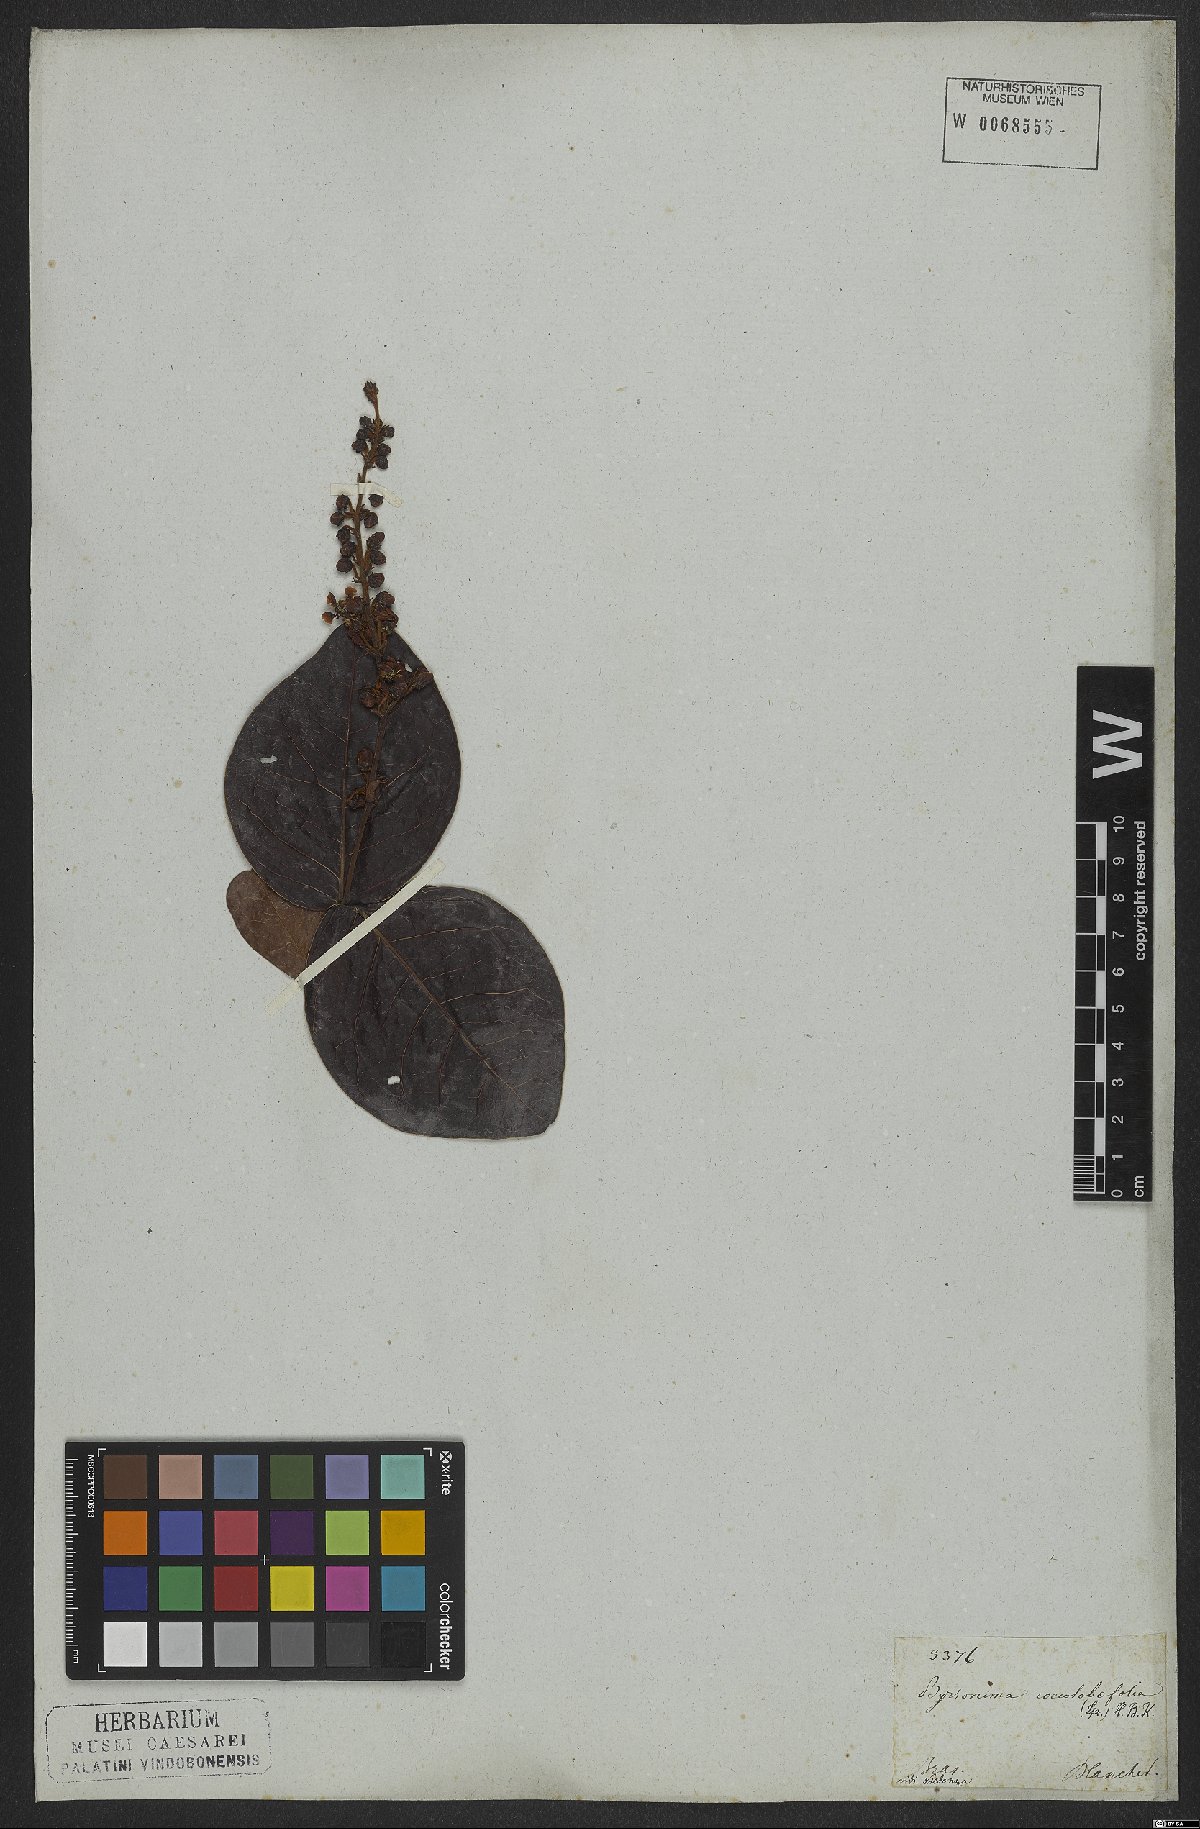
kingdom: Plantae
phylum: Tracheophyta
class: Magnoliopsida
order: Malpighiales
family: Malpighiaceae
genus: Byrsonima
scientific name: Byrsonima coccolobifolia
